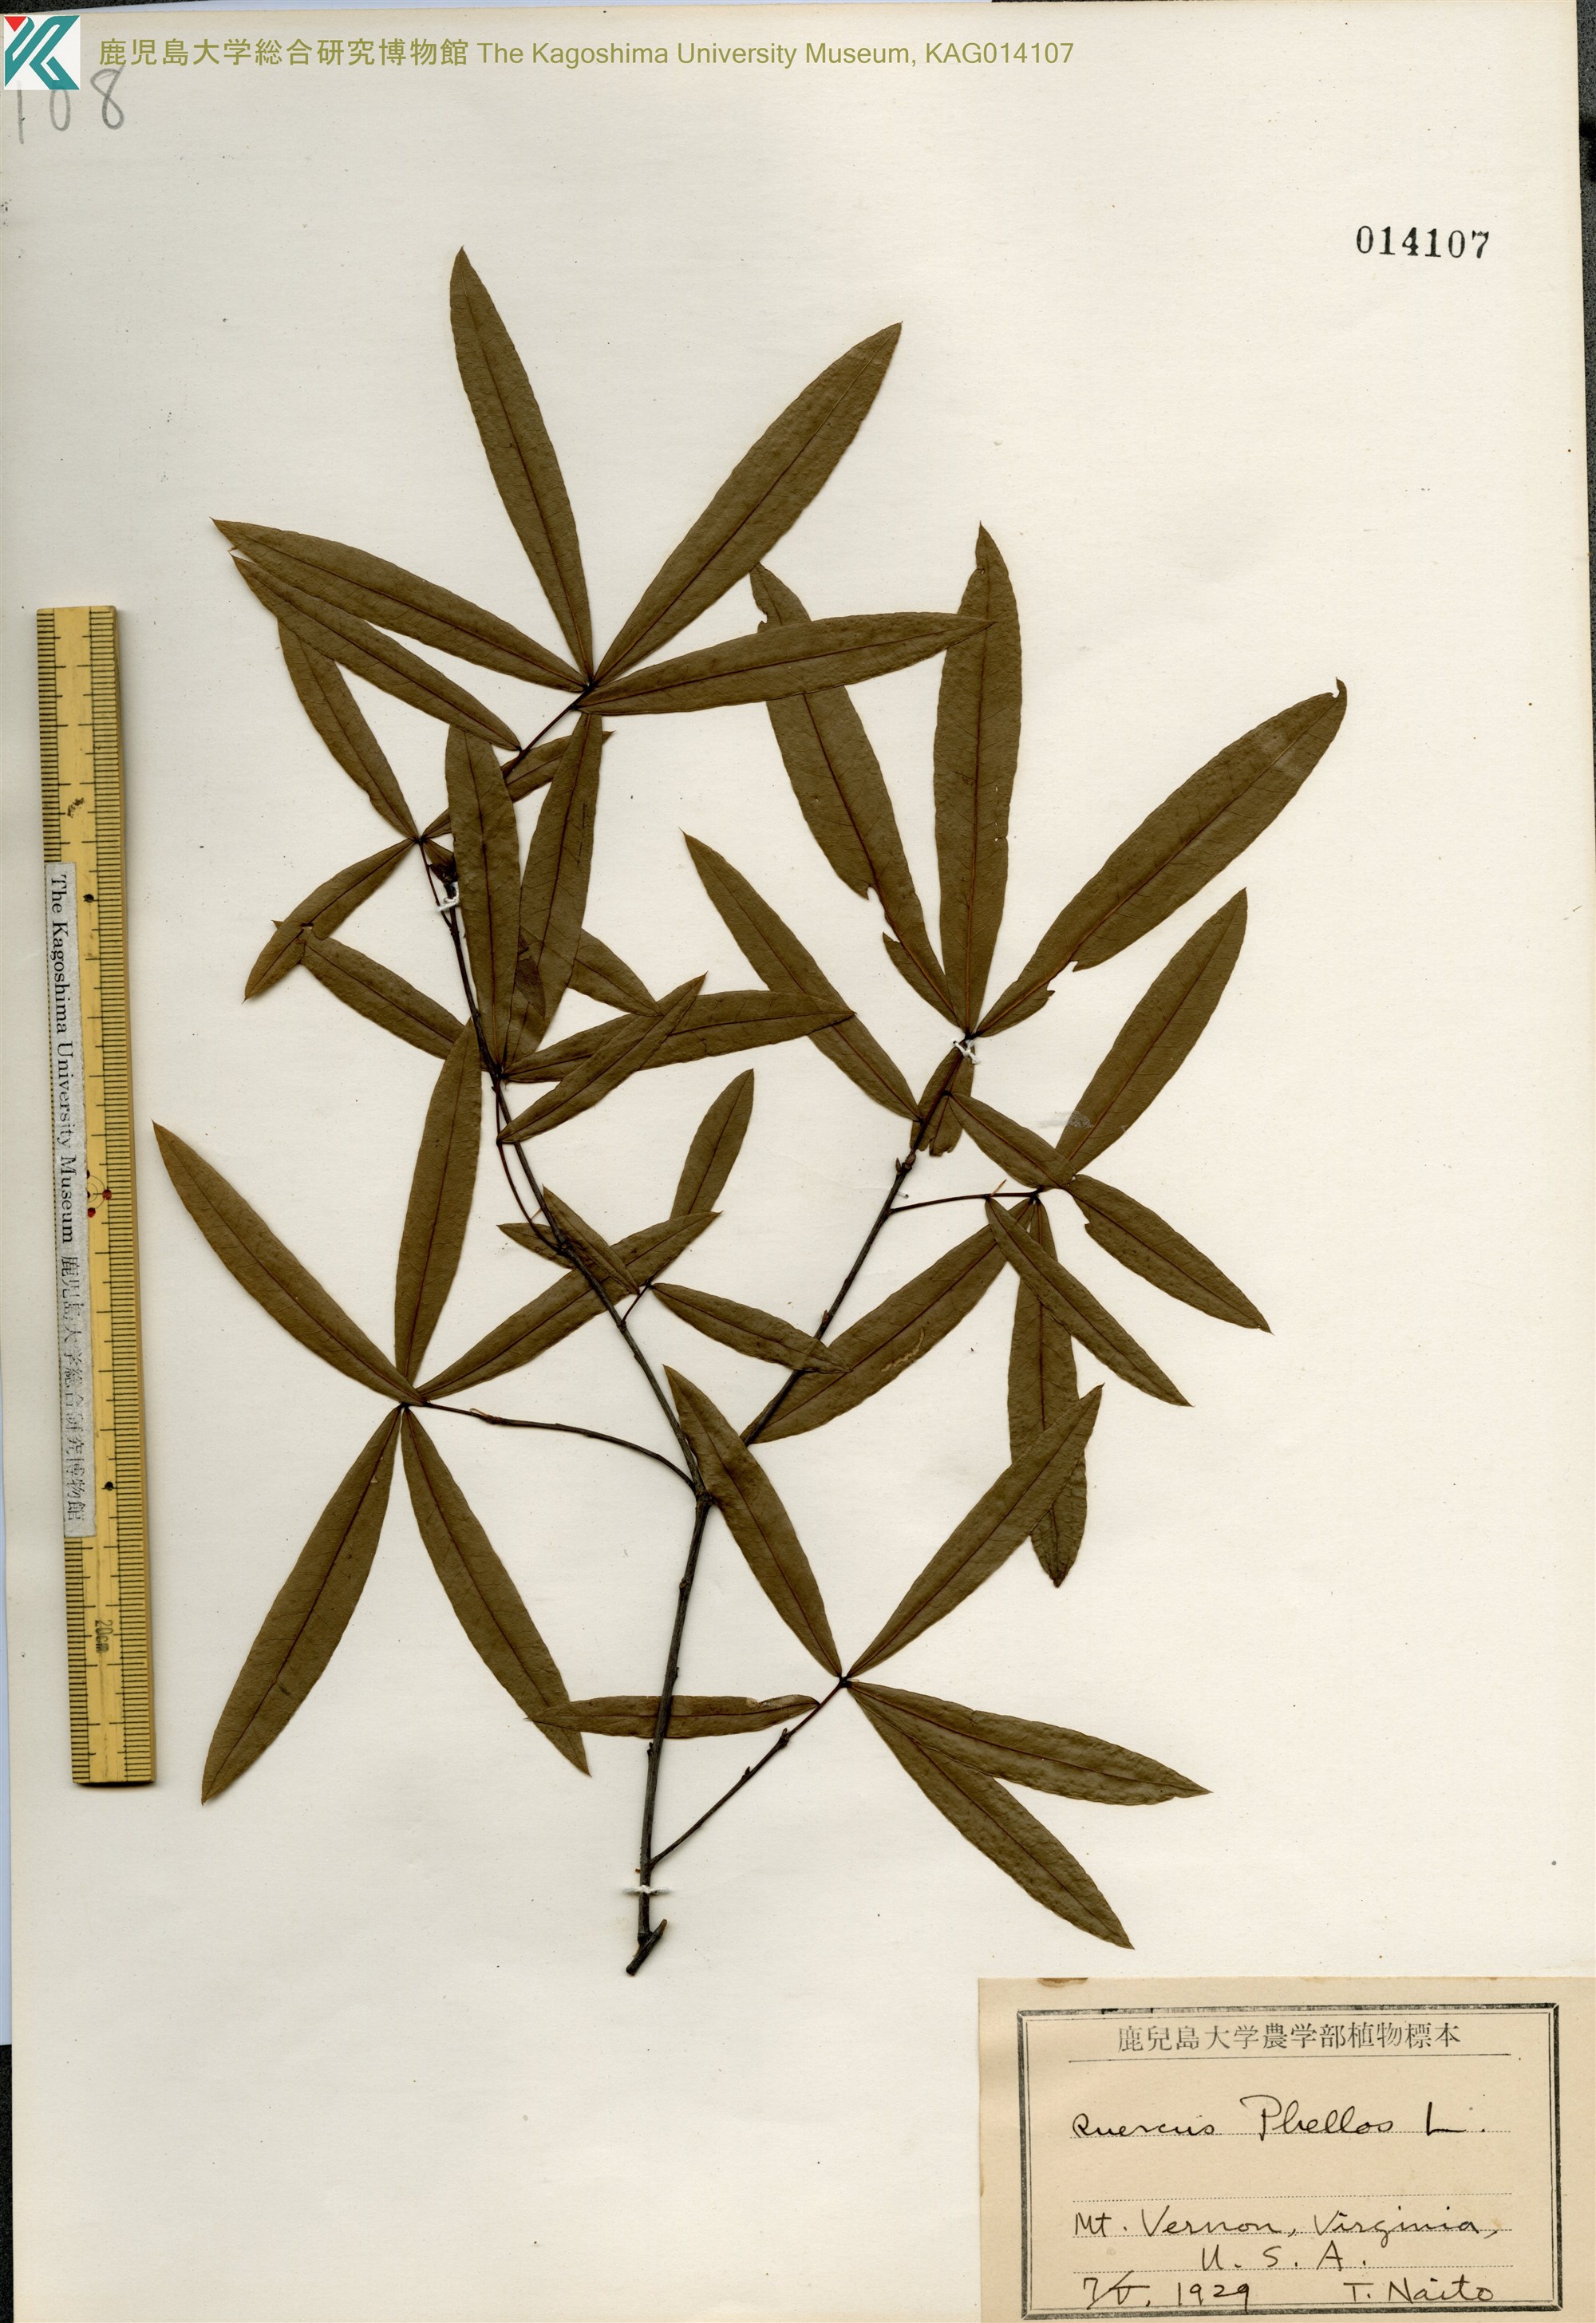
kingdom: Plantae
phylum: Tracheophyta
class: Magnoliopsida
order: Fagales
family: Fagaceae
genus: Quercus
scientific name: Quercus phellos
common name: Willow oak
